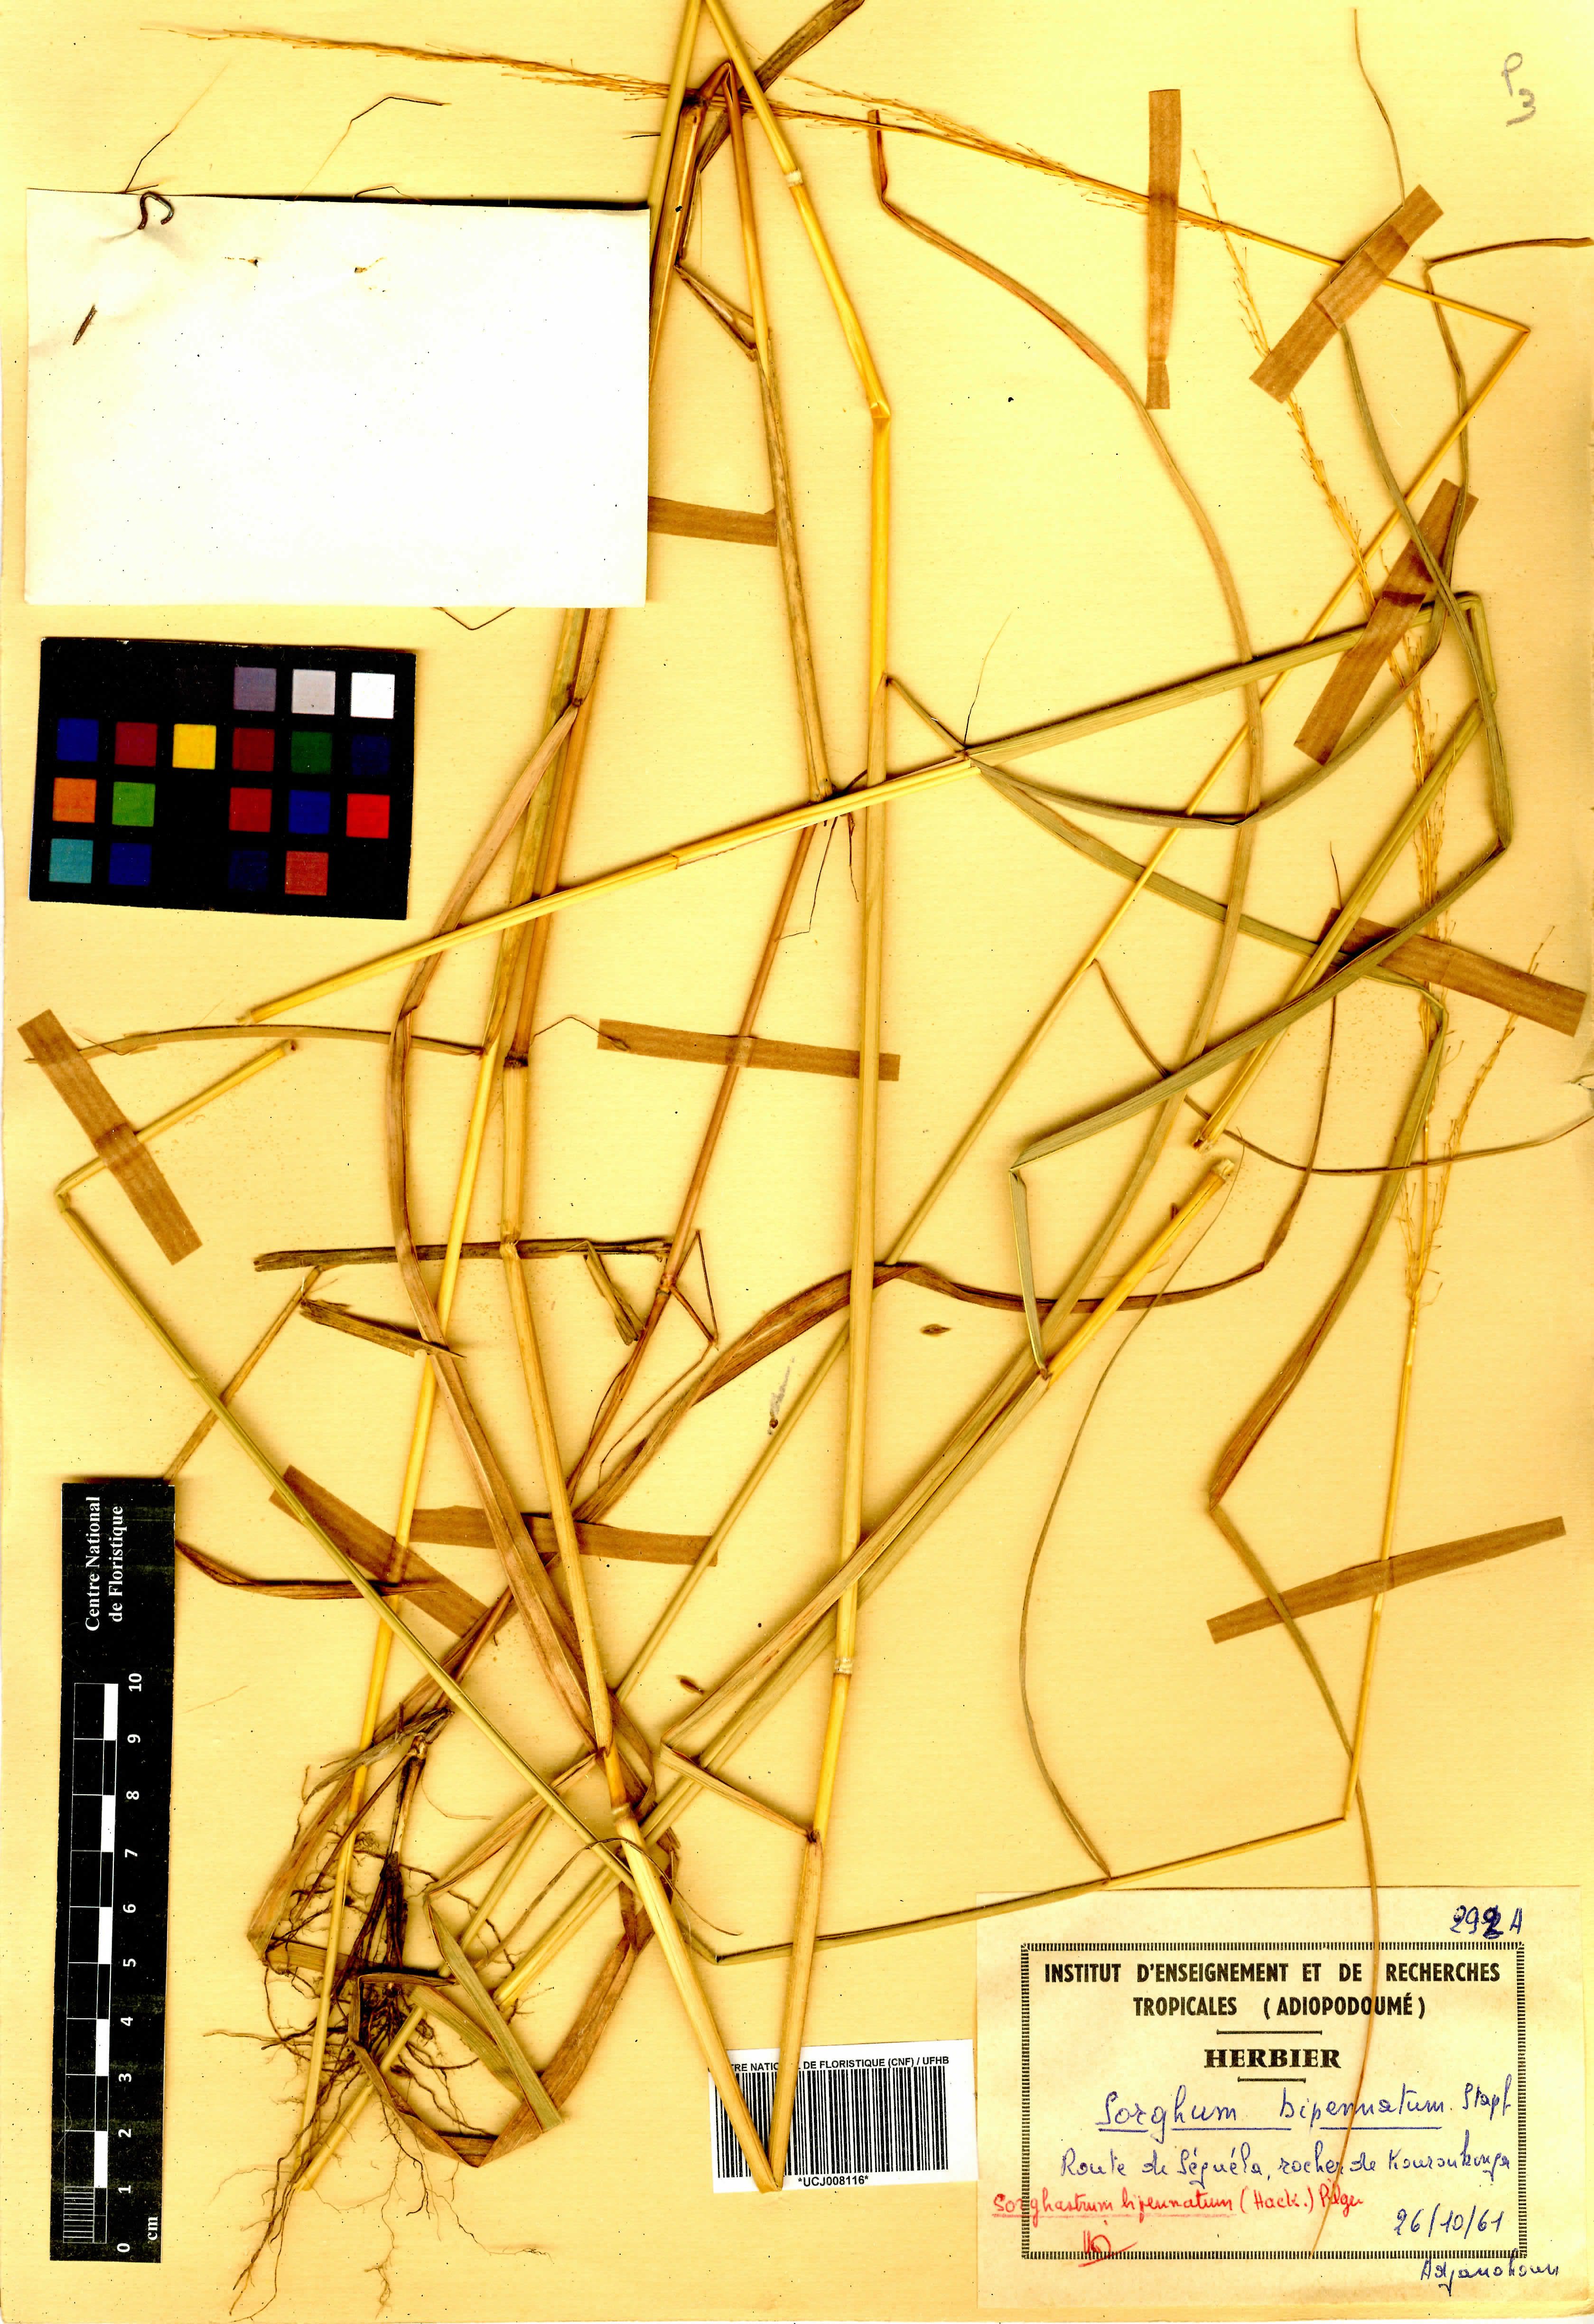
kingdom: Plantae
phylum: Tracheophyta
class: Liliopsida
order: Poales
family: Poaceae
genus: Sorghastrum
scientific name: Sorghastrum incompletum
